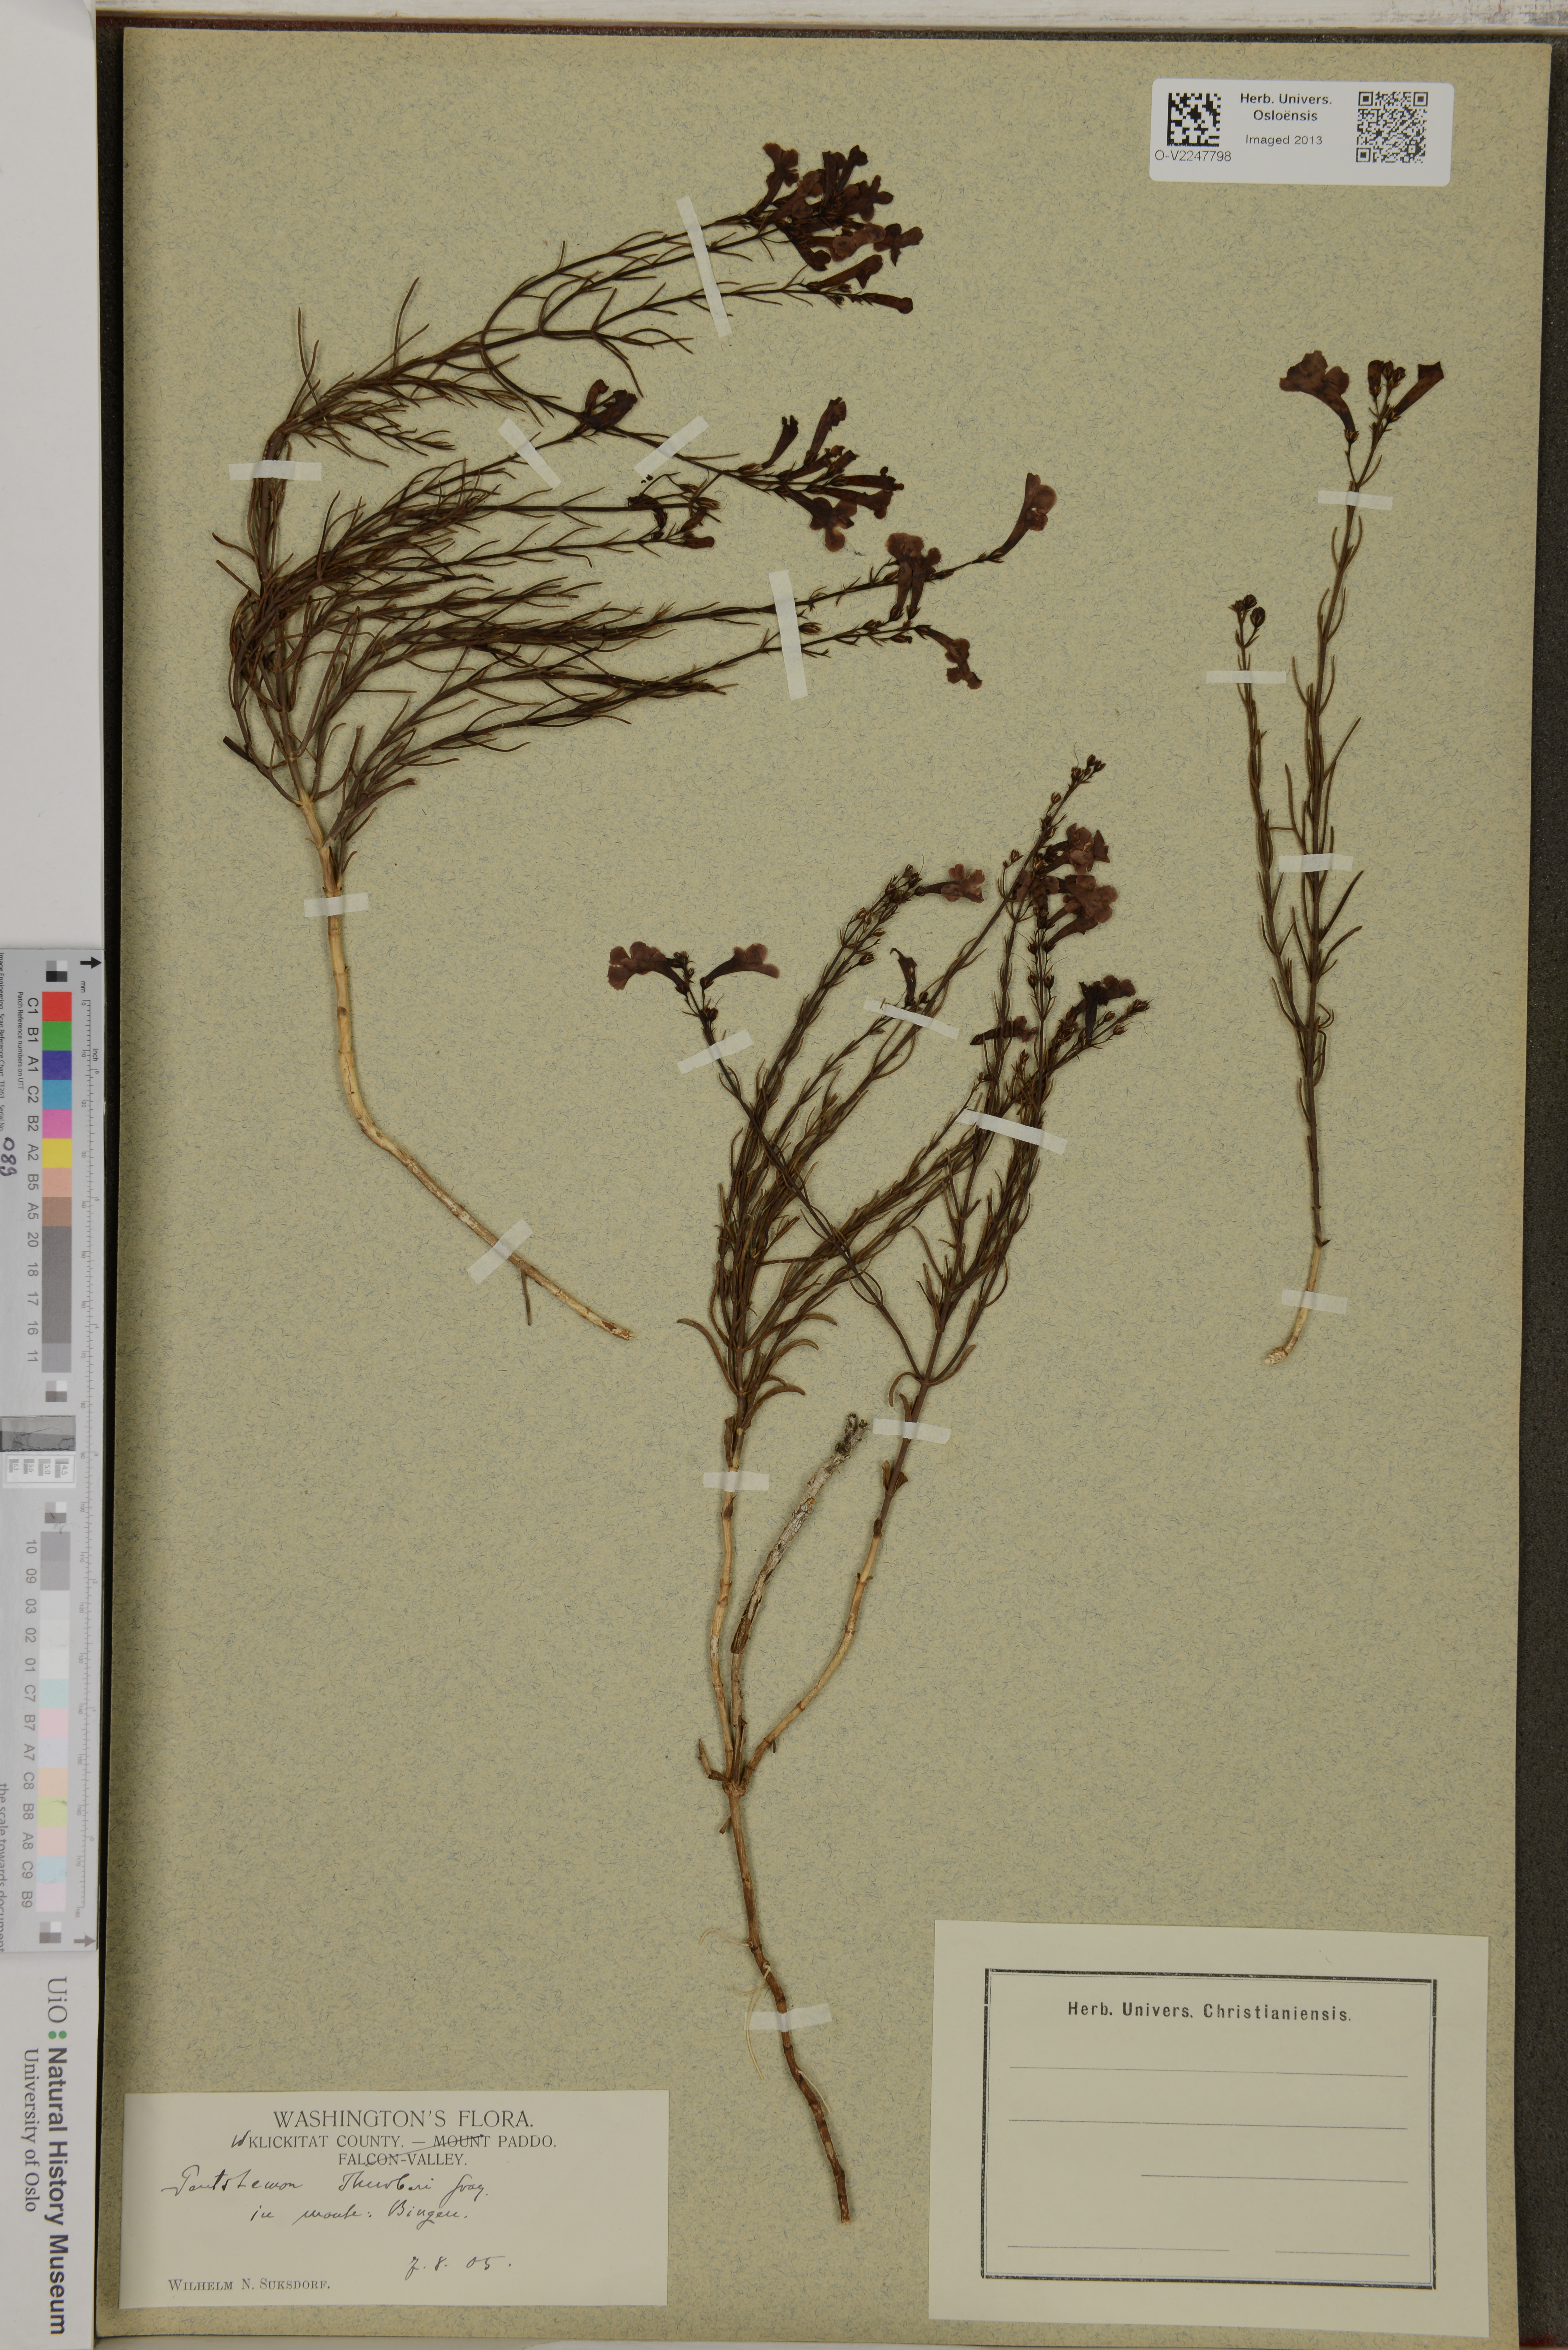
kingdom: Plantae
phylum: Tracheophyta
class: Magnoliopsida
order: Lamiales
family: Plantaginaceae
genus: Penstemon
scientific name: Penstemon thurberi
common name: Thurber's beardtongue
